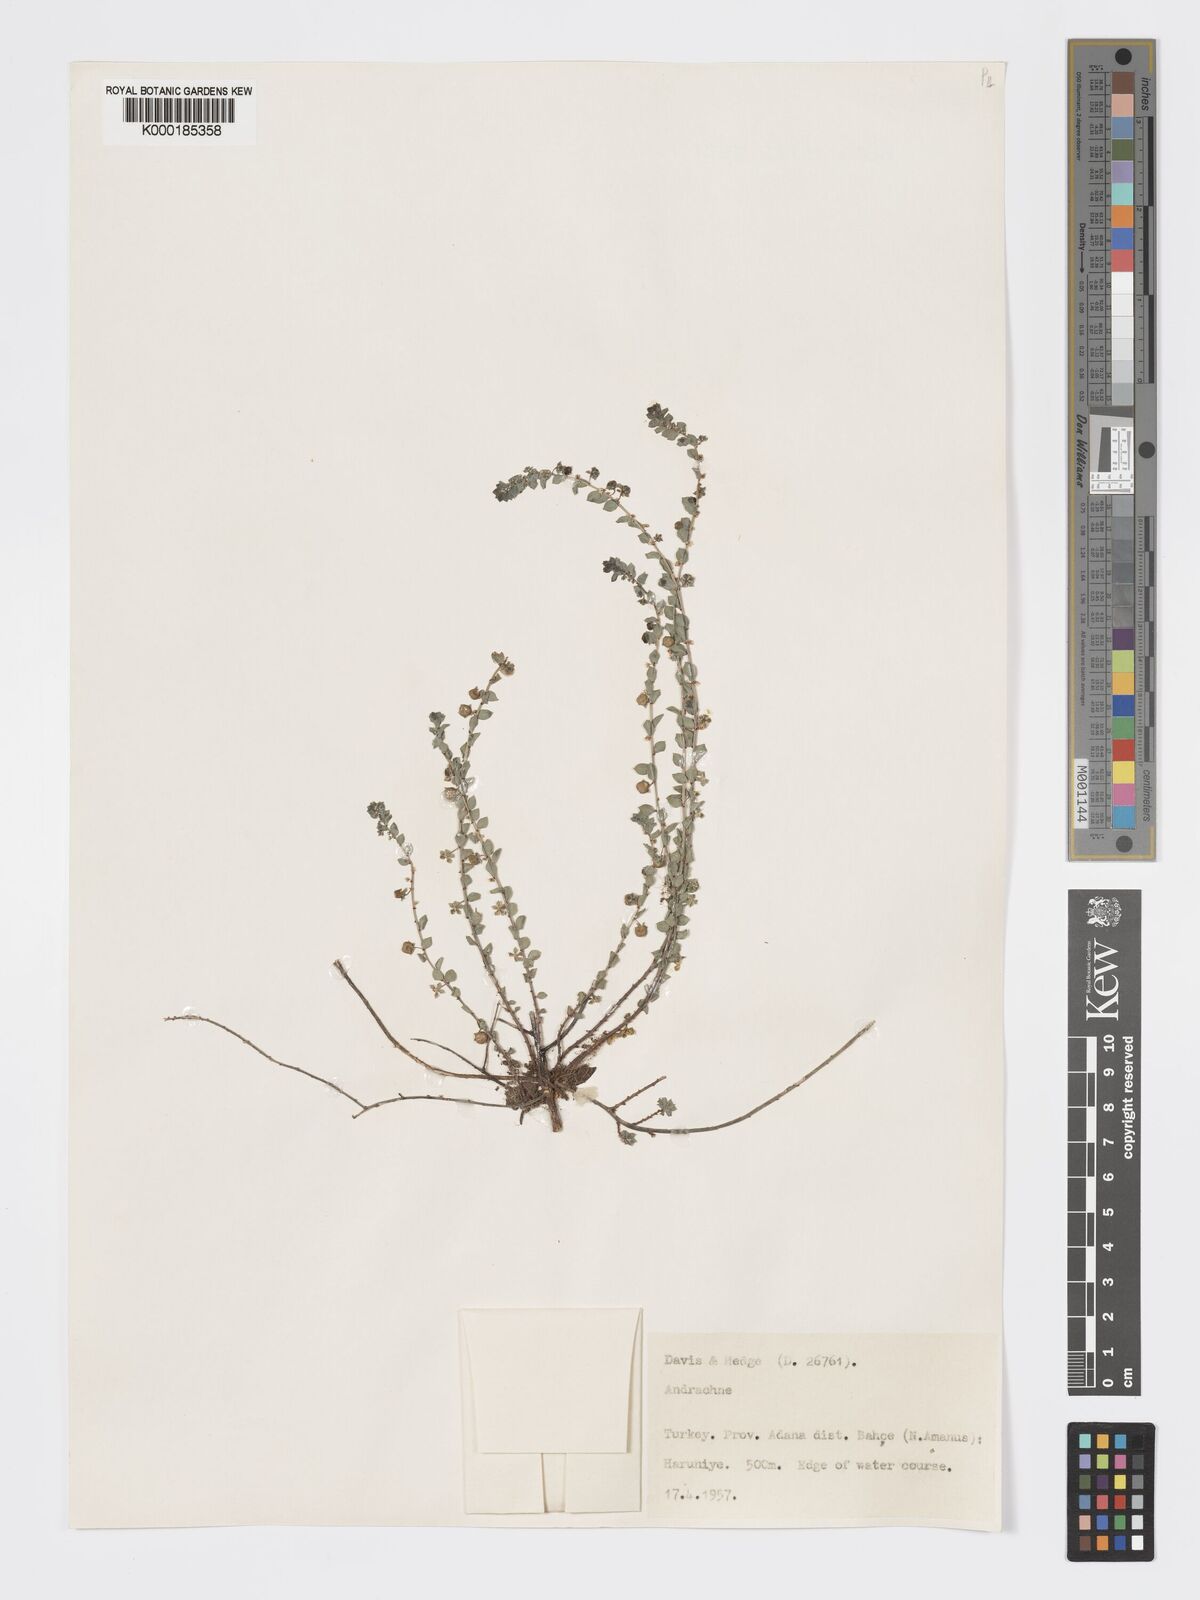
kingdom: Plantae
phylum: Tracheophyta
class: Magnoliopsida
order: Malpighiales
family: Phyllanthaceae
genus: Andrachne
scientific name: Andrachne telephioides
